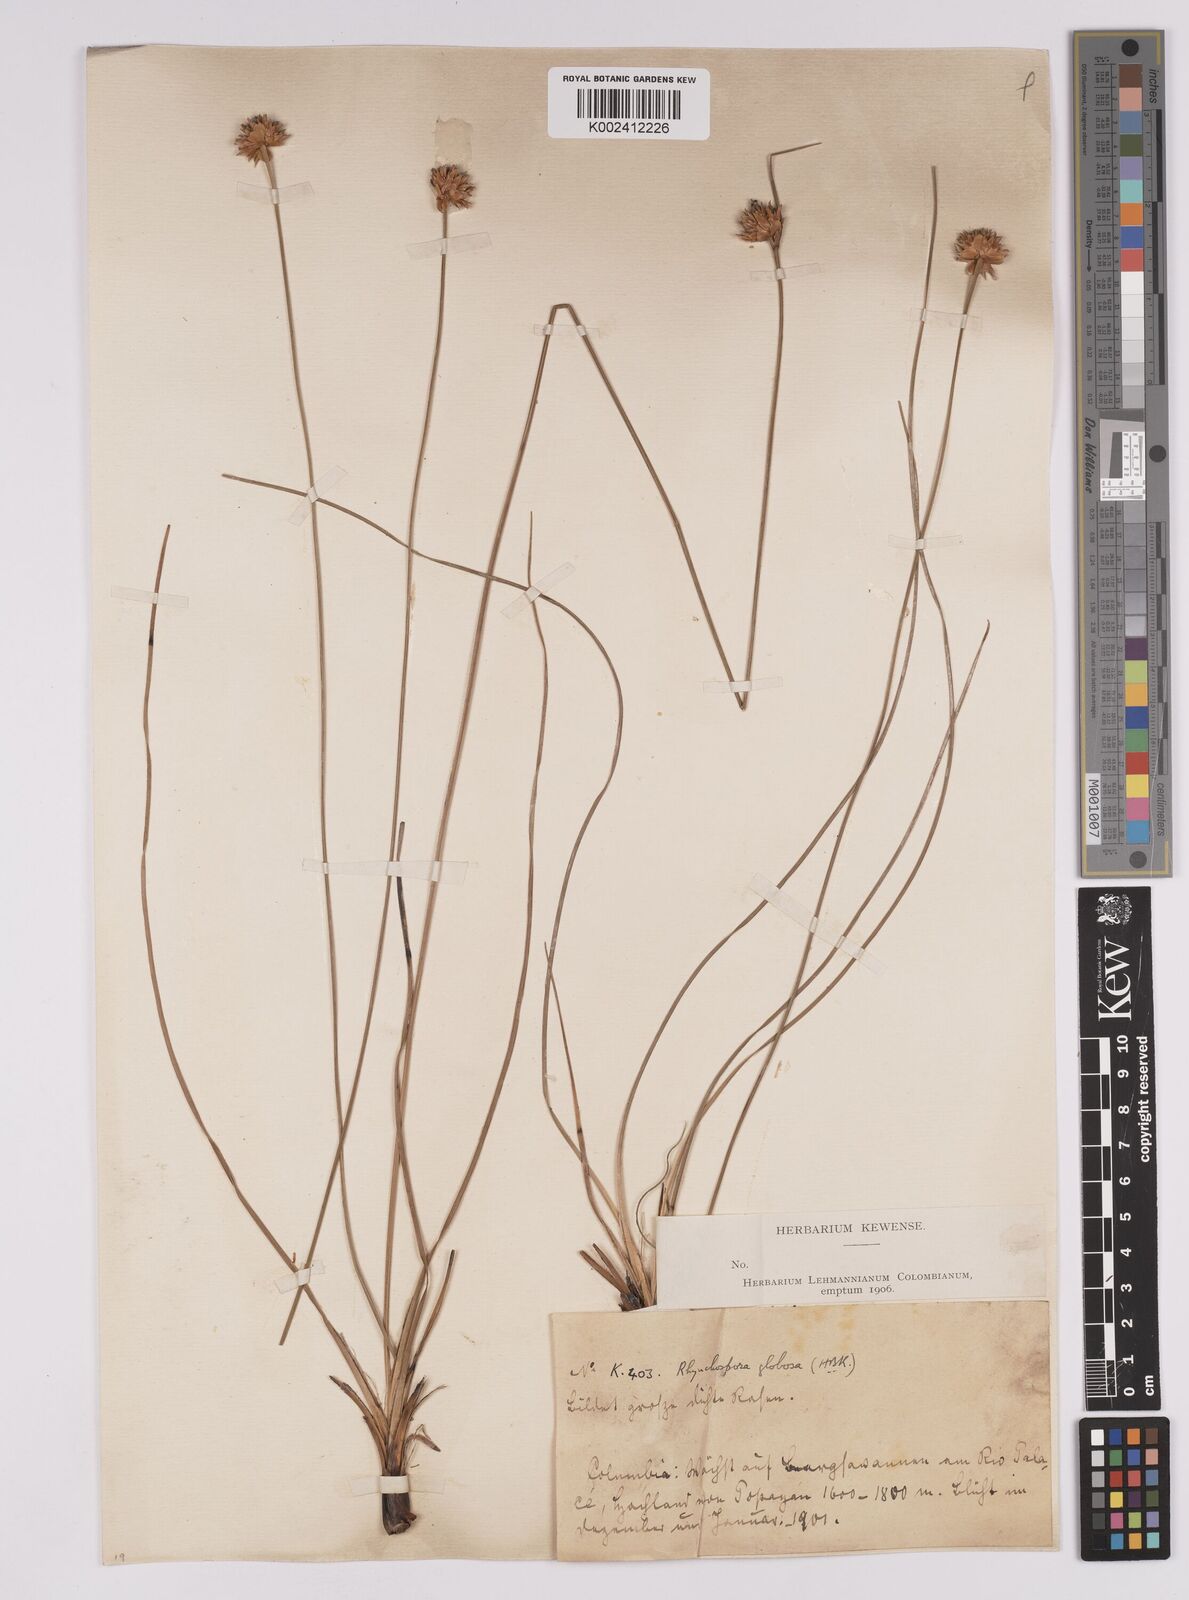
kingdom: Plantae
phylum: Tracheophyta
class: Liliopsida
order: Poales
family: Cyperaceae
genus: Rhynchospora
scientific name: Rhynchospora barbata
